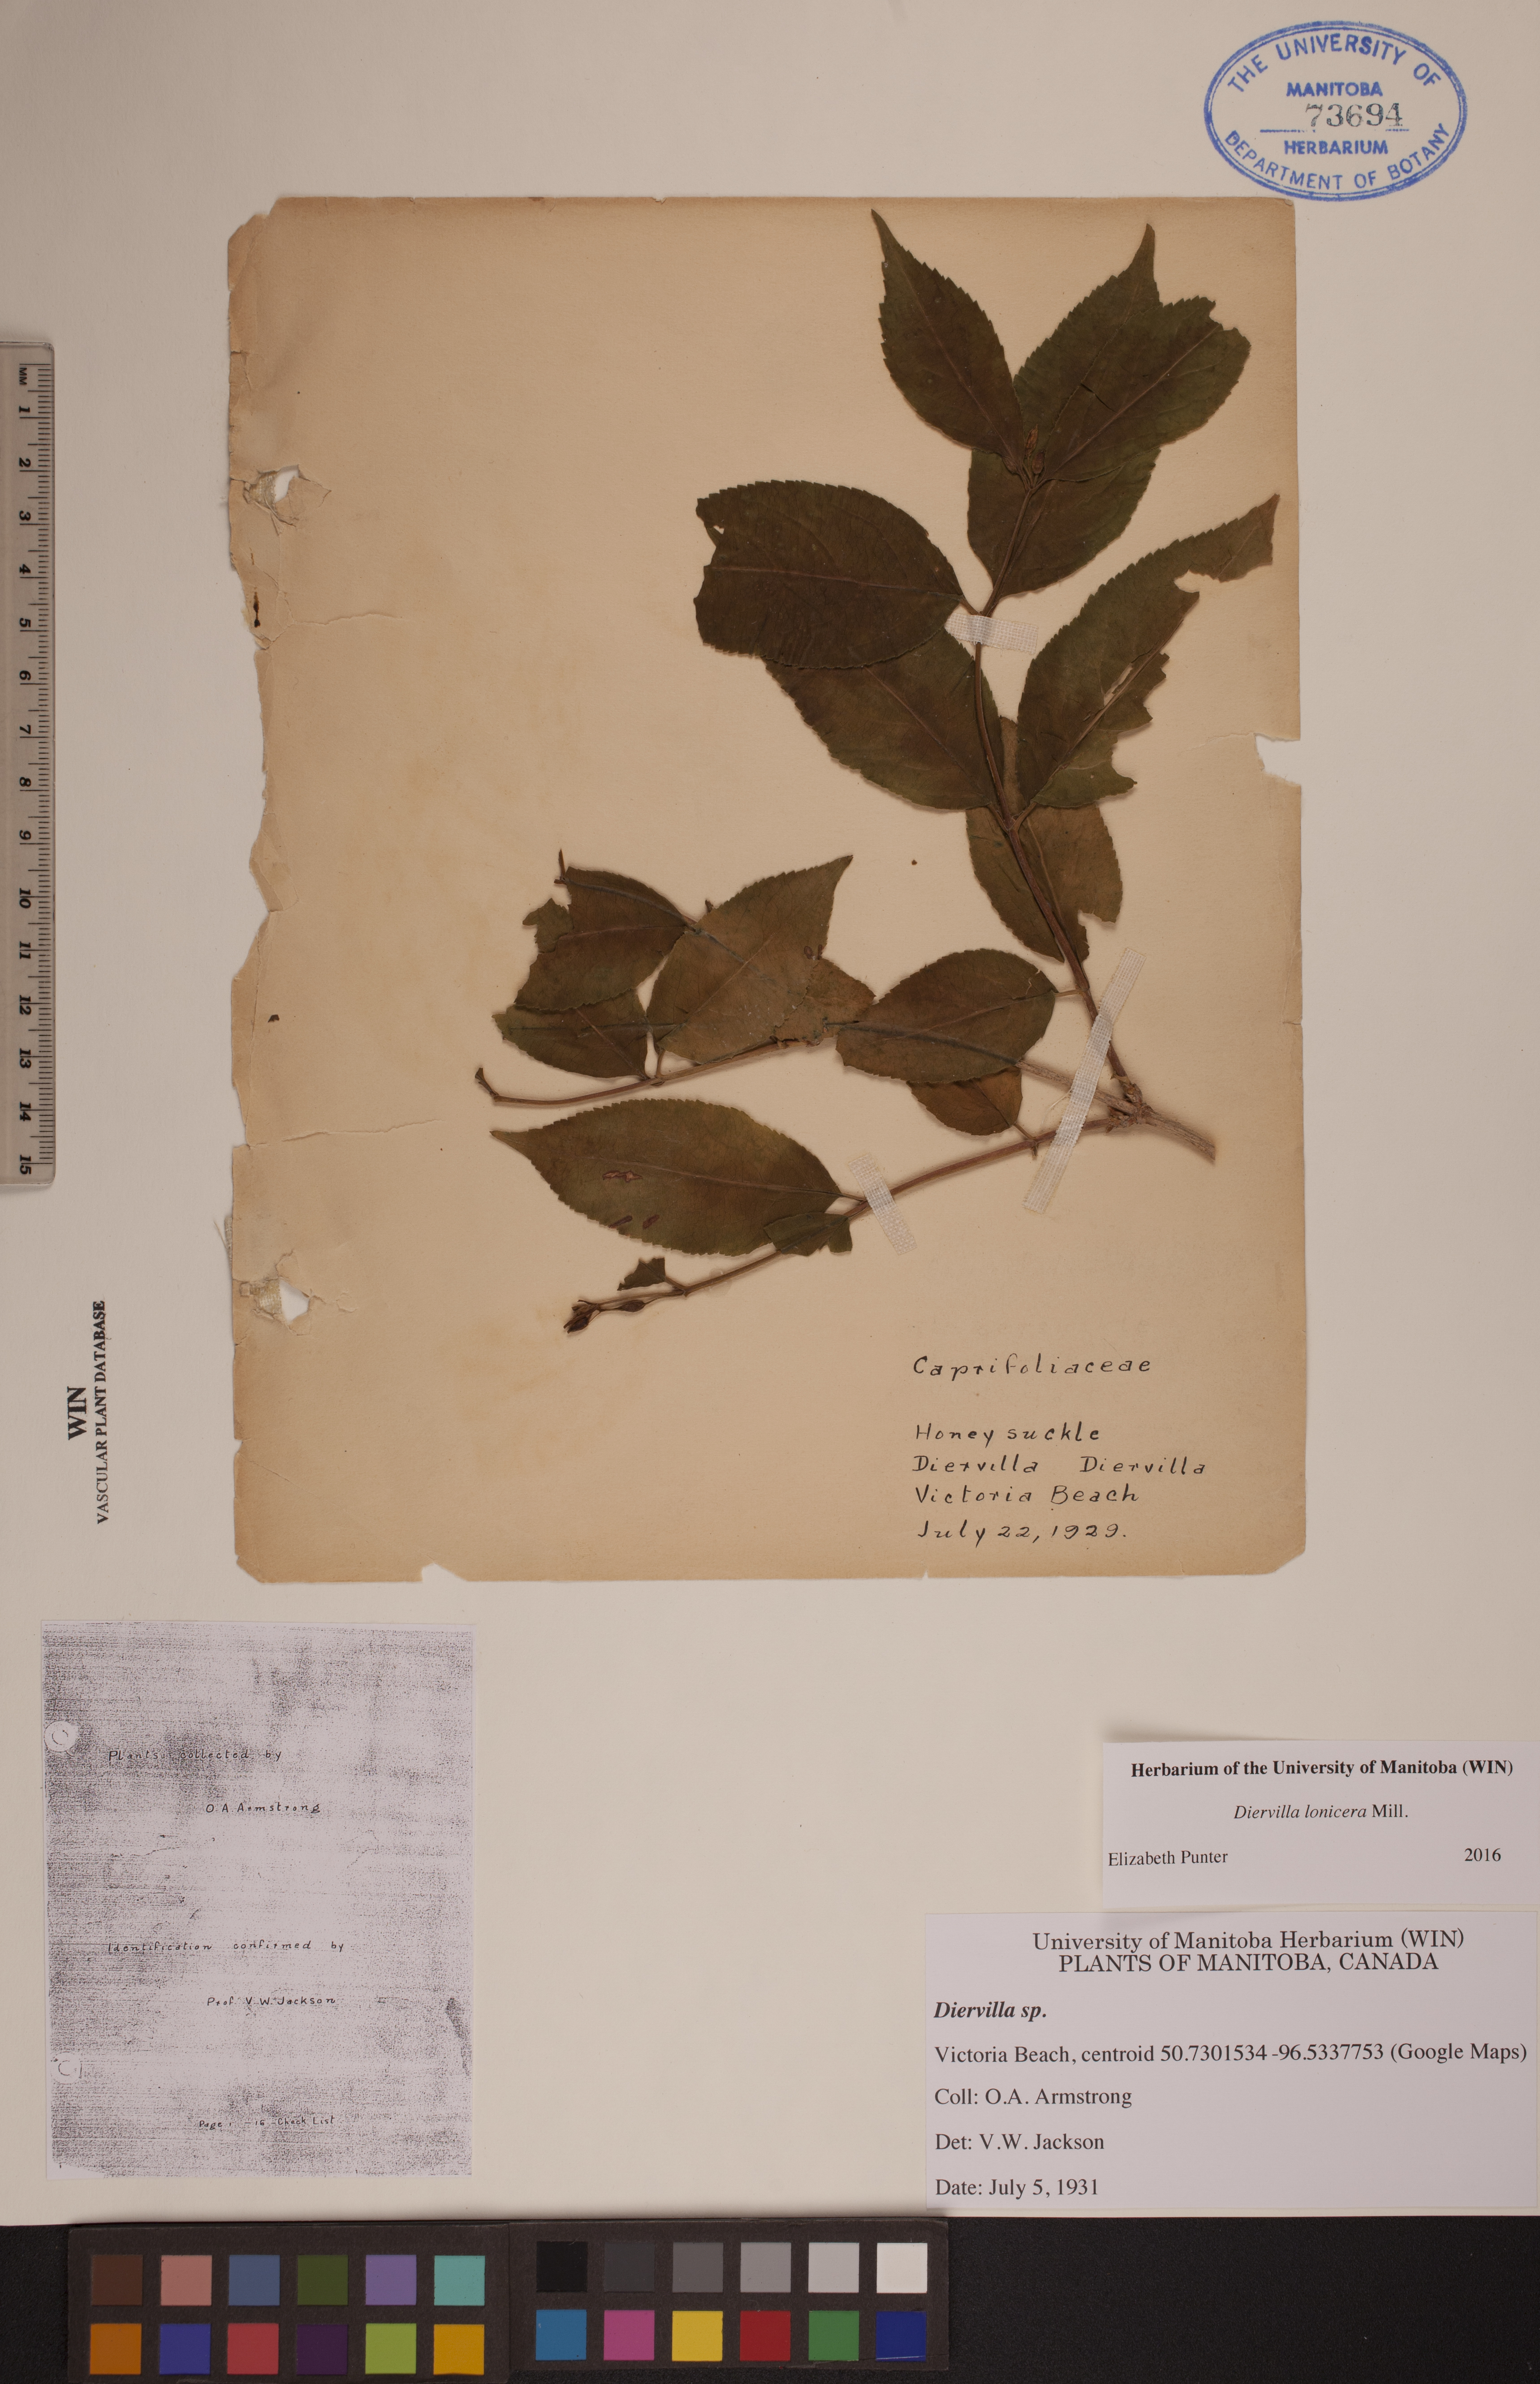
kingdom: Plantae
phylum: Tracheophyta
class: Magnoliopsida
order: Dipsacales
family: Caprifoliaceae
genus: Diervilla
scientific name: Diervilla lonicera
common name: Bush-honeysuckle
